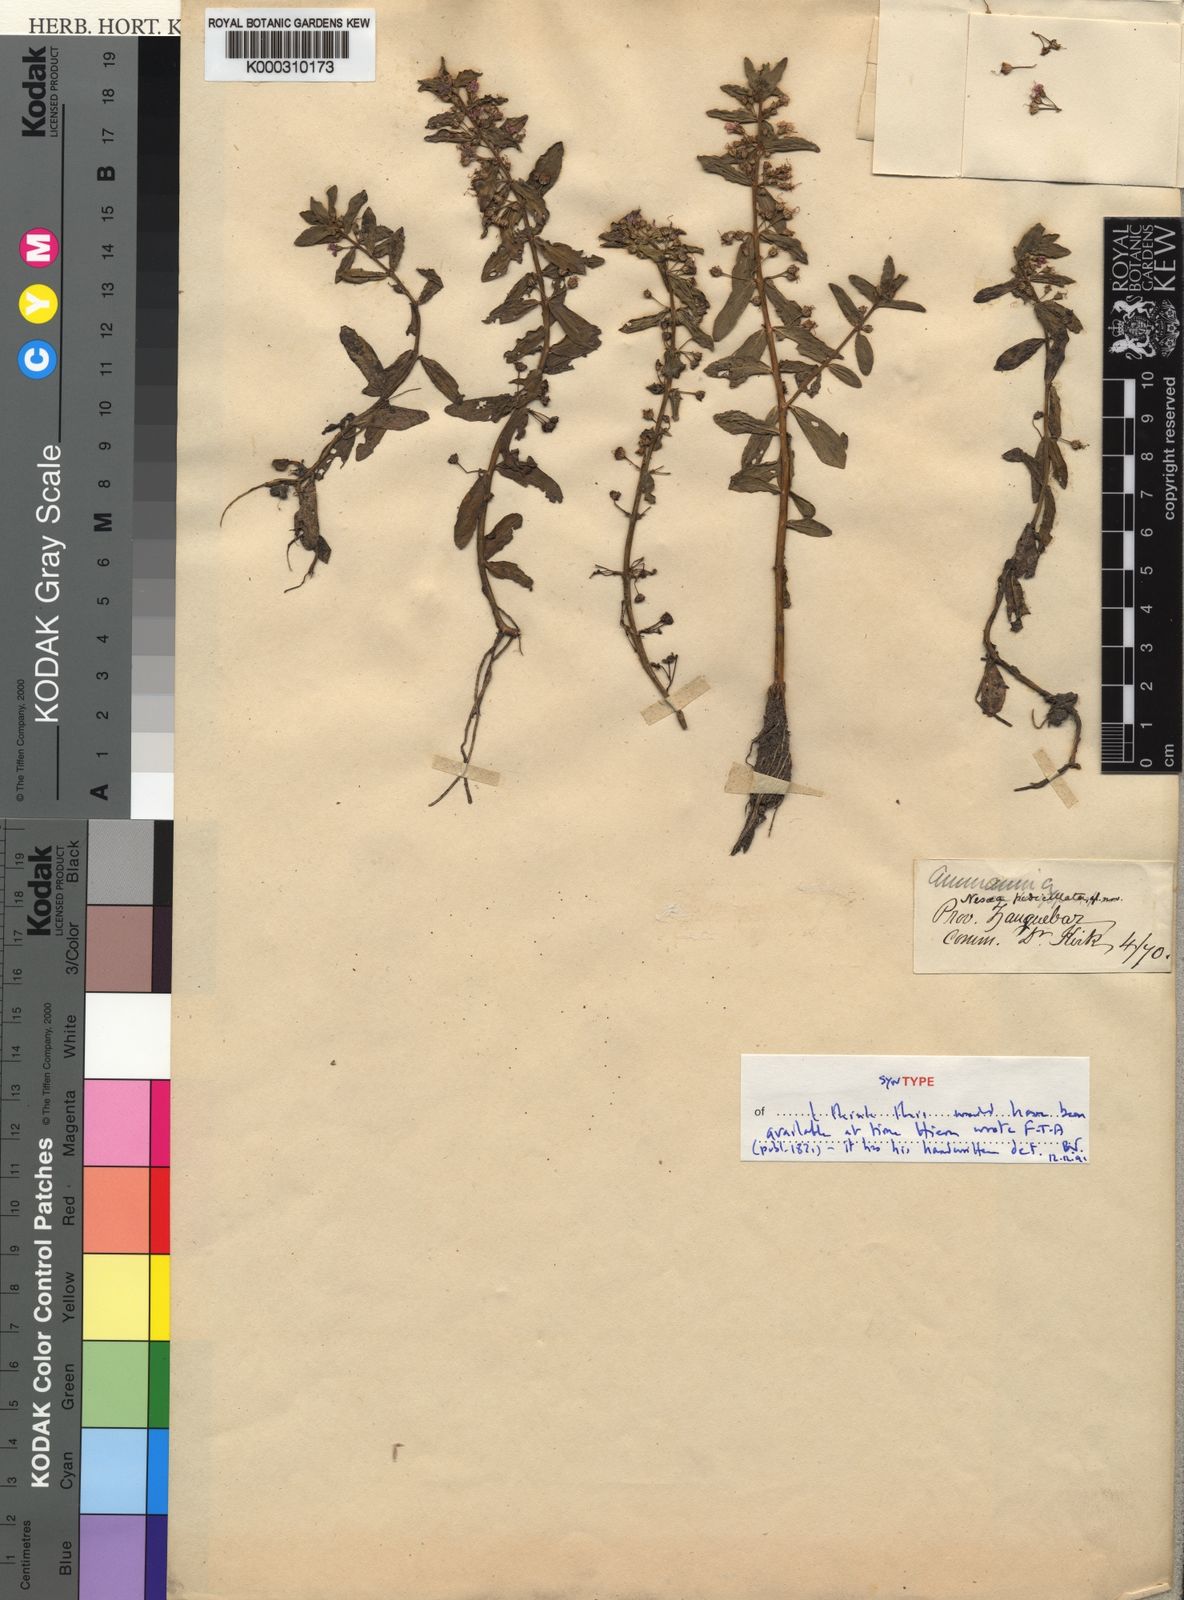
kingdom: Plantae
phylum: Tracheophyta
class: Magnoliopsida
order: Myrtales
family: Lythraceae
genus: Ammannia
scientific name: Ammannia pedicellata
